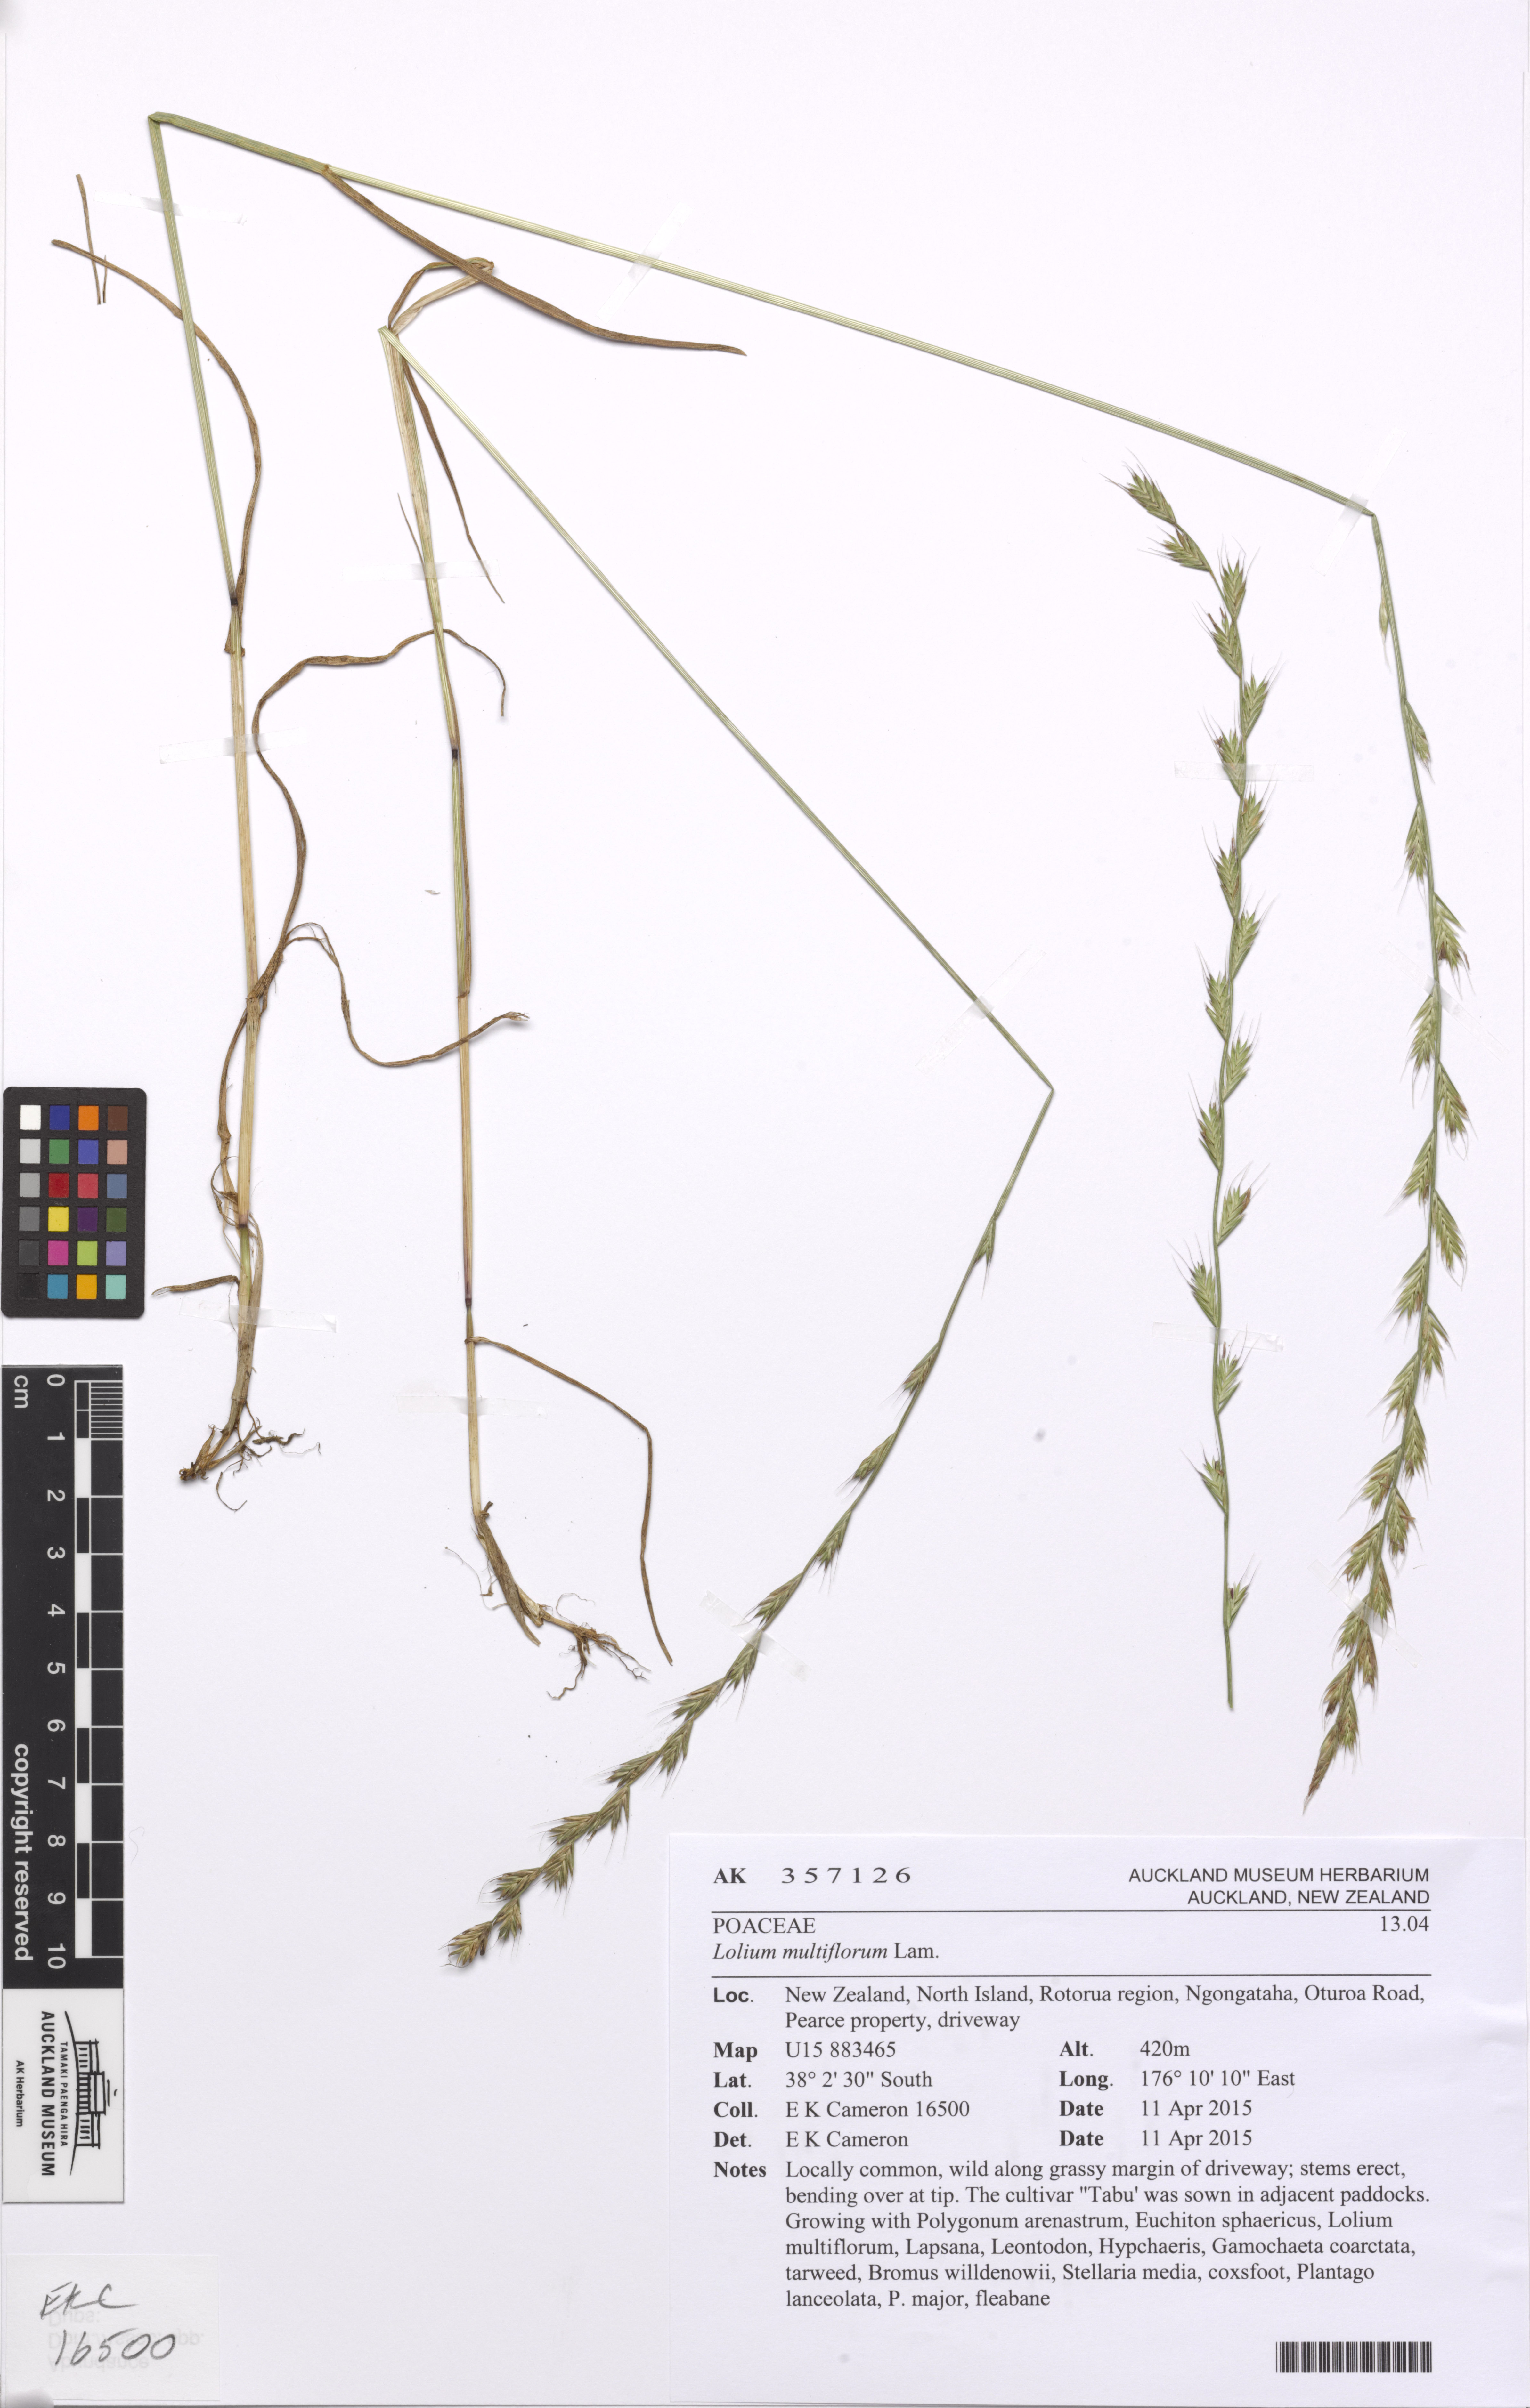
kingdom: Plantae
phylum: Tracheophyta
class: Liliopsida
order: Poales
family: Poaceae
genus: Lolium
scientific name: Lolium multiflorum
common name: Annual ryegrass
